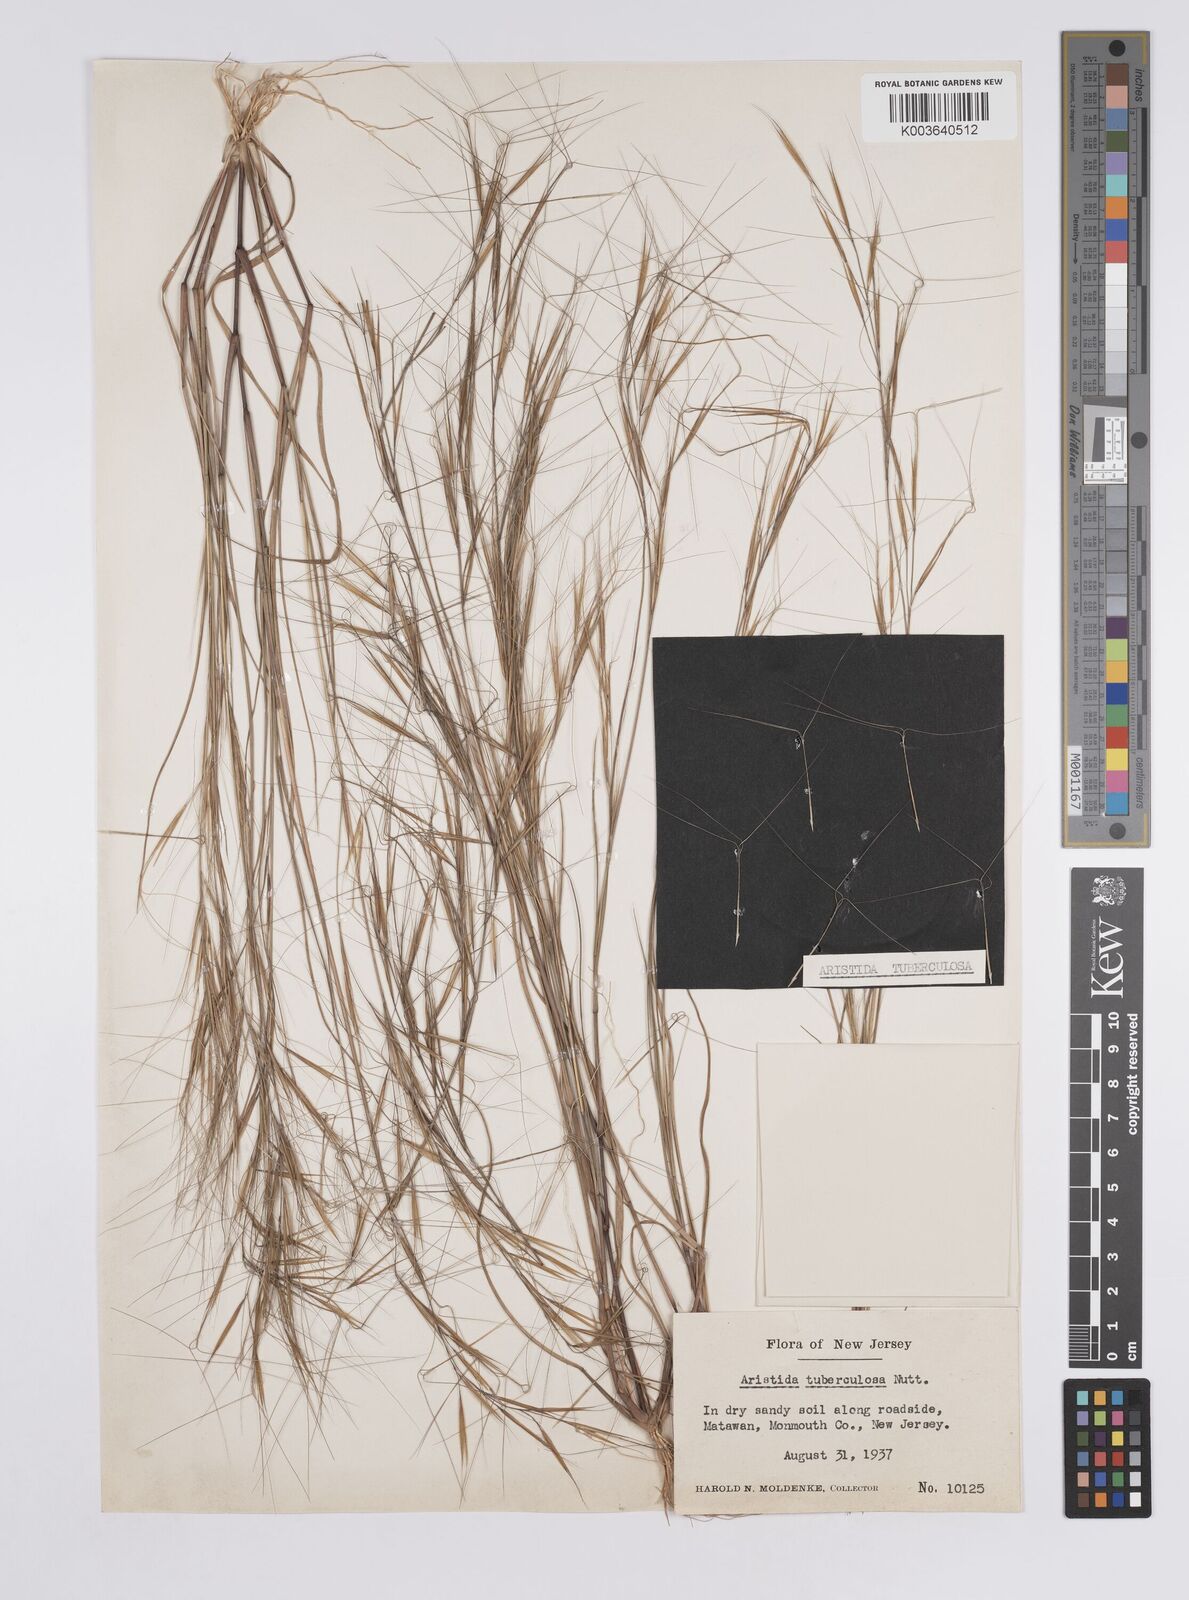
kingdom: Plantae
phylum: Tracheophyta
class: Liliopsida
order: Poales
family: Poaceae
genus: Aristida
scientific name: Aristida tuberculosa
